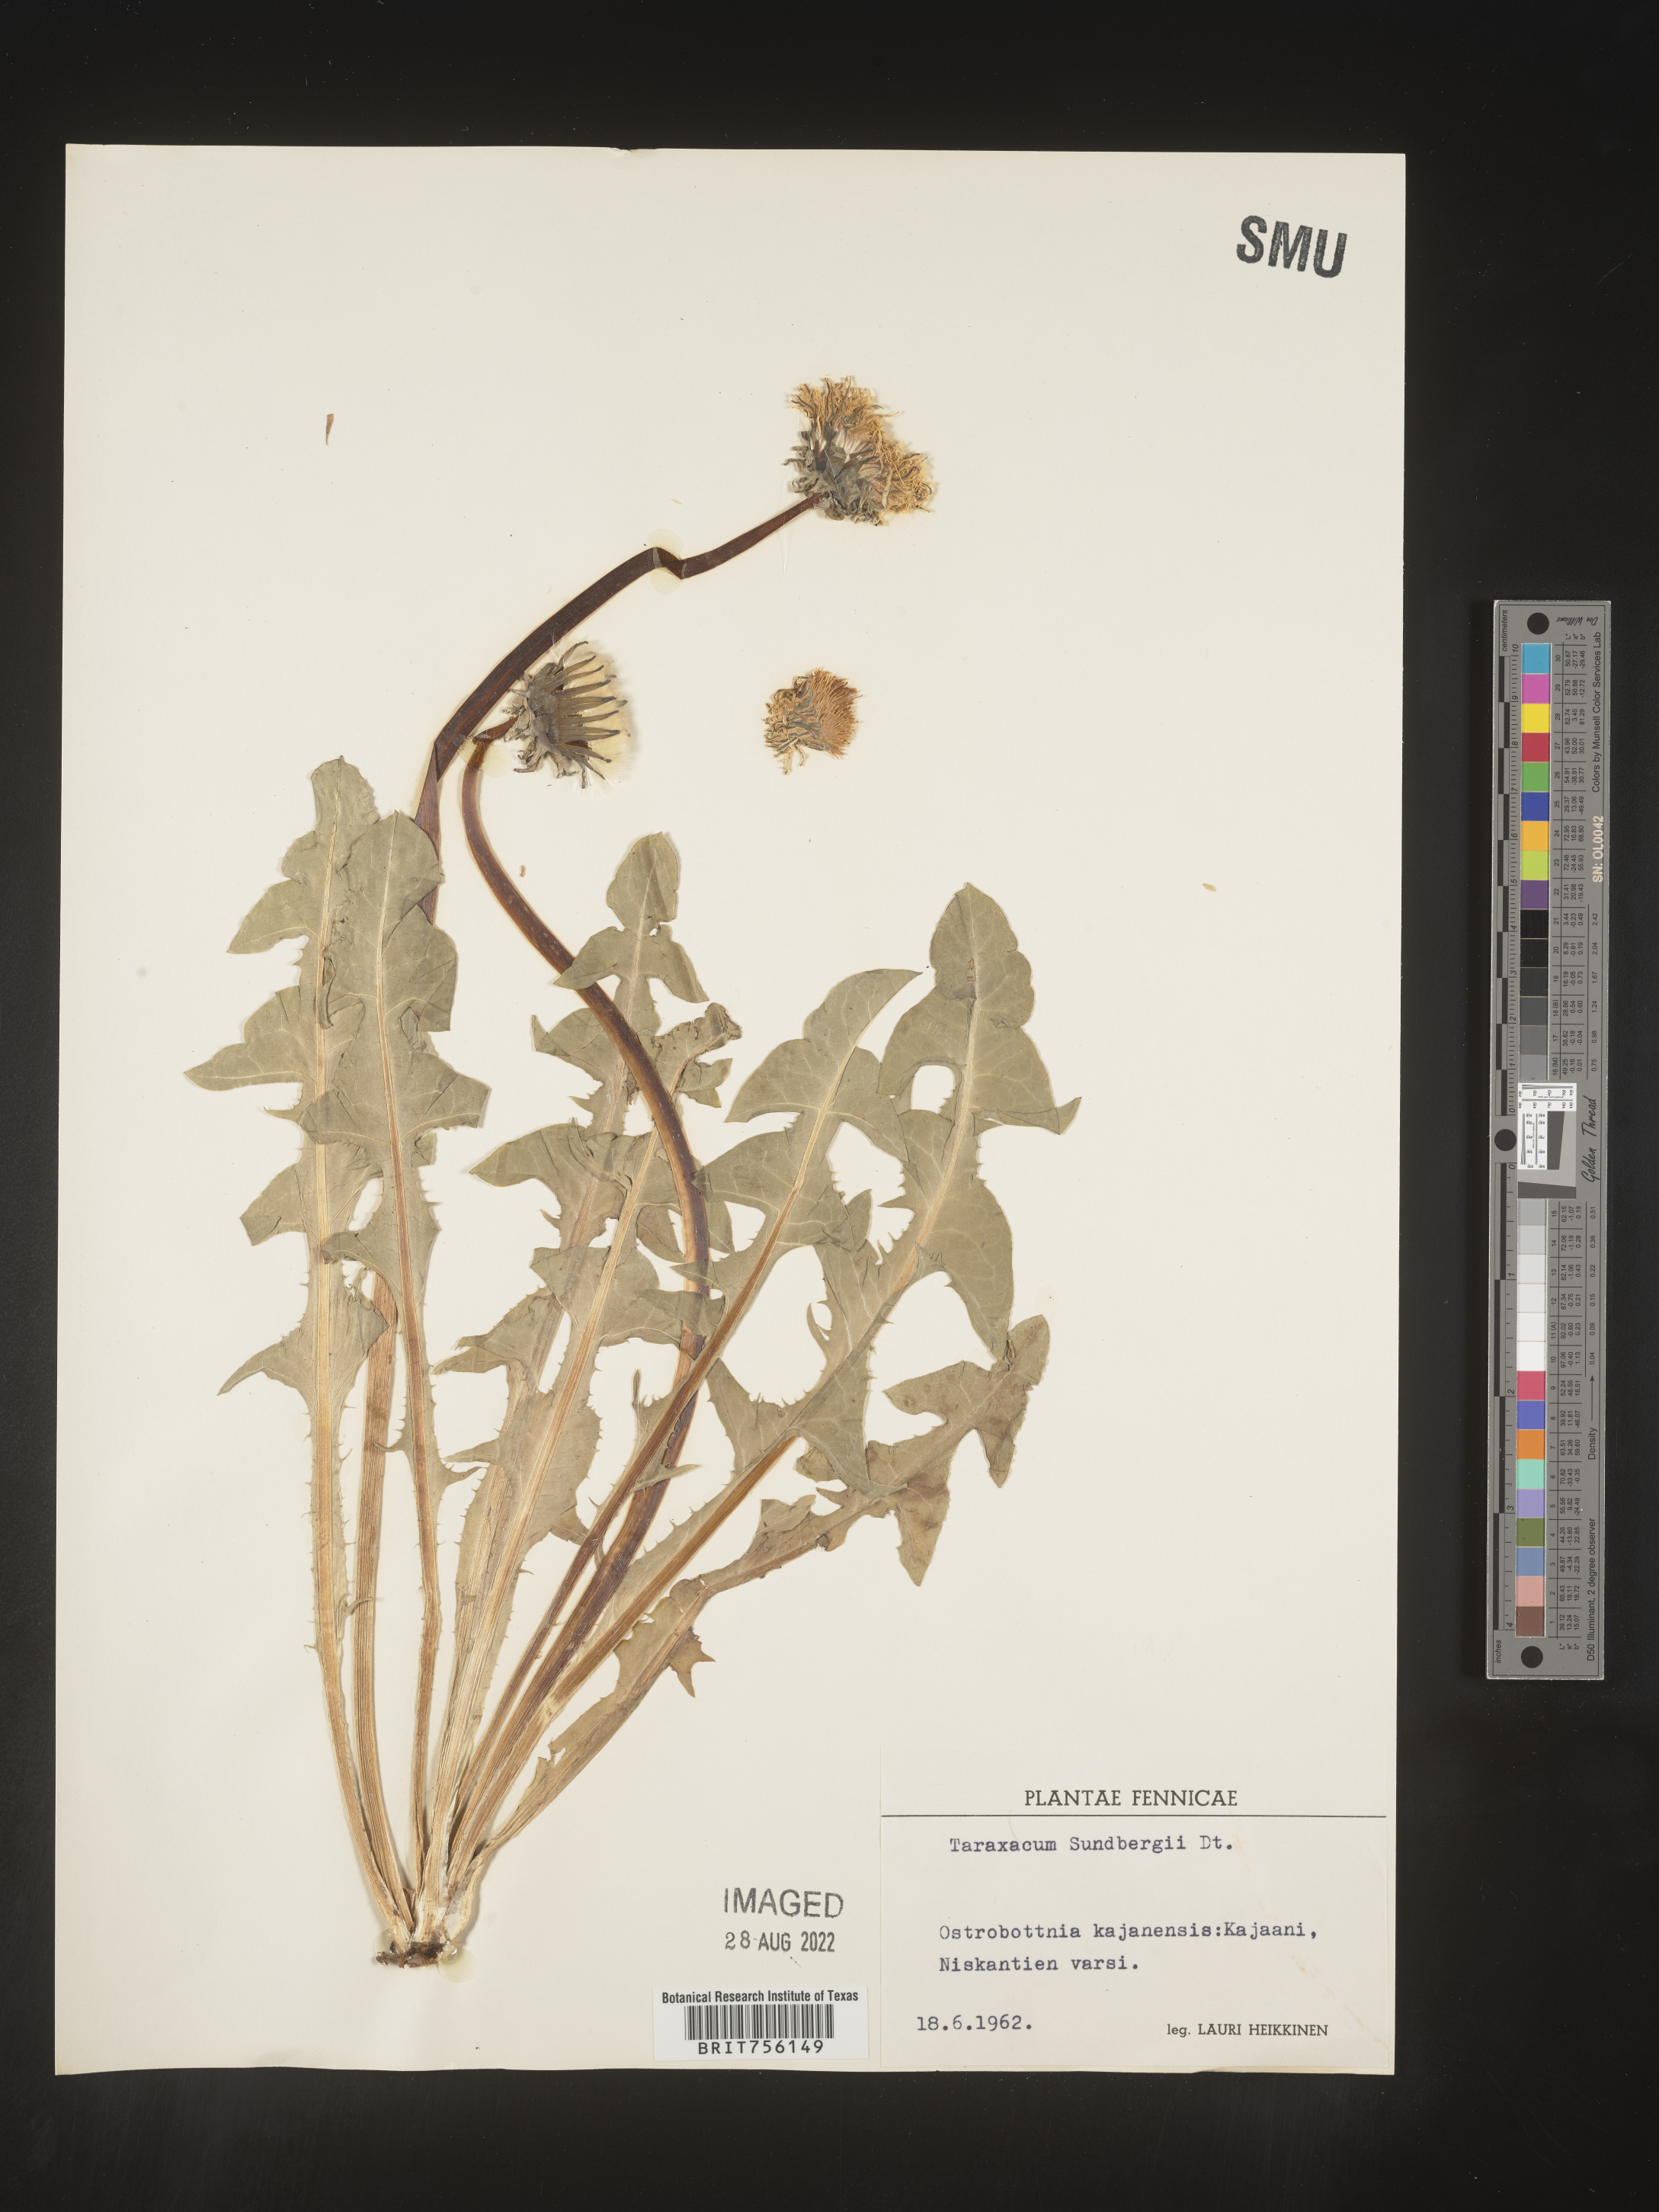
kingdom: Plantae
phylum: Tracheophyta
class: Magnoliopsida
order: Asterales
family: Asteraceae
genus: Taraxacum
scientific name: Taraxacum
